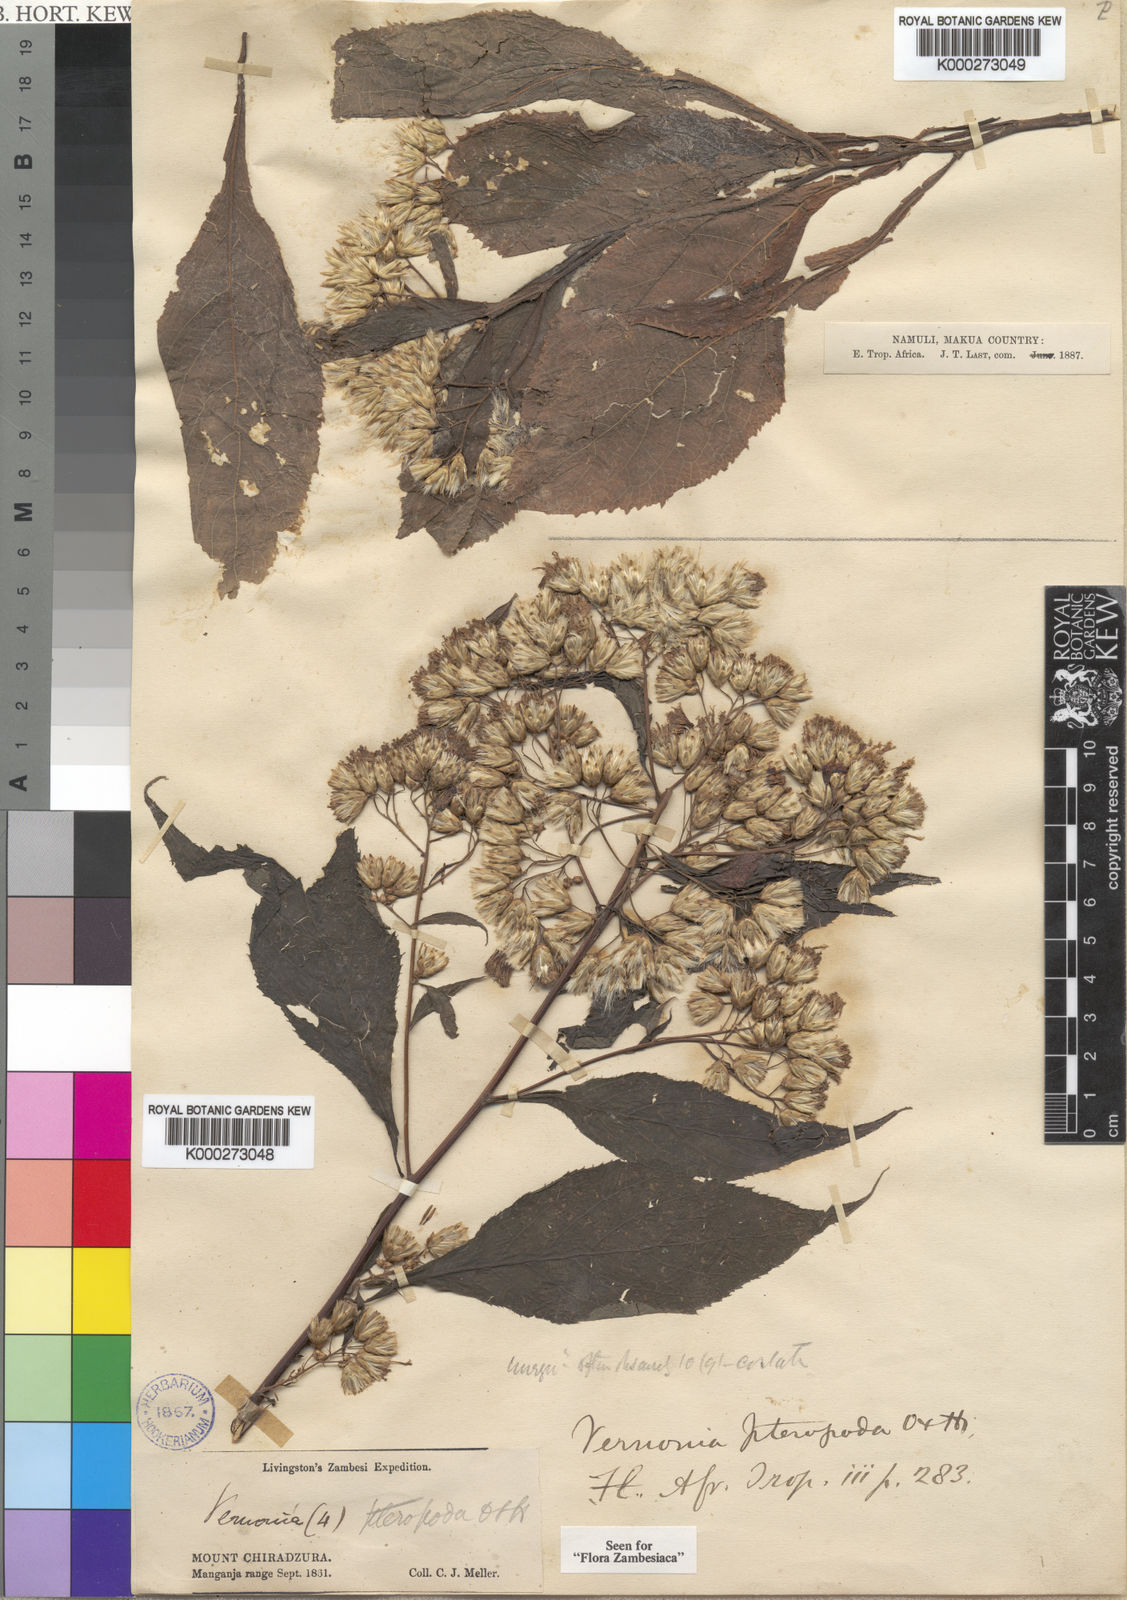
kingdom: Plantae
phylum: Tracheophyta
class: Magnoliopsida
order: Asterales
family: Asteraceae
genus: Ananthura
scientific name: Ananthura pteropoda
